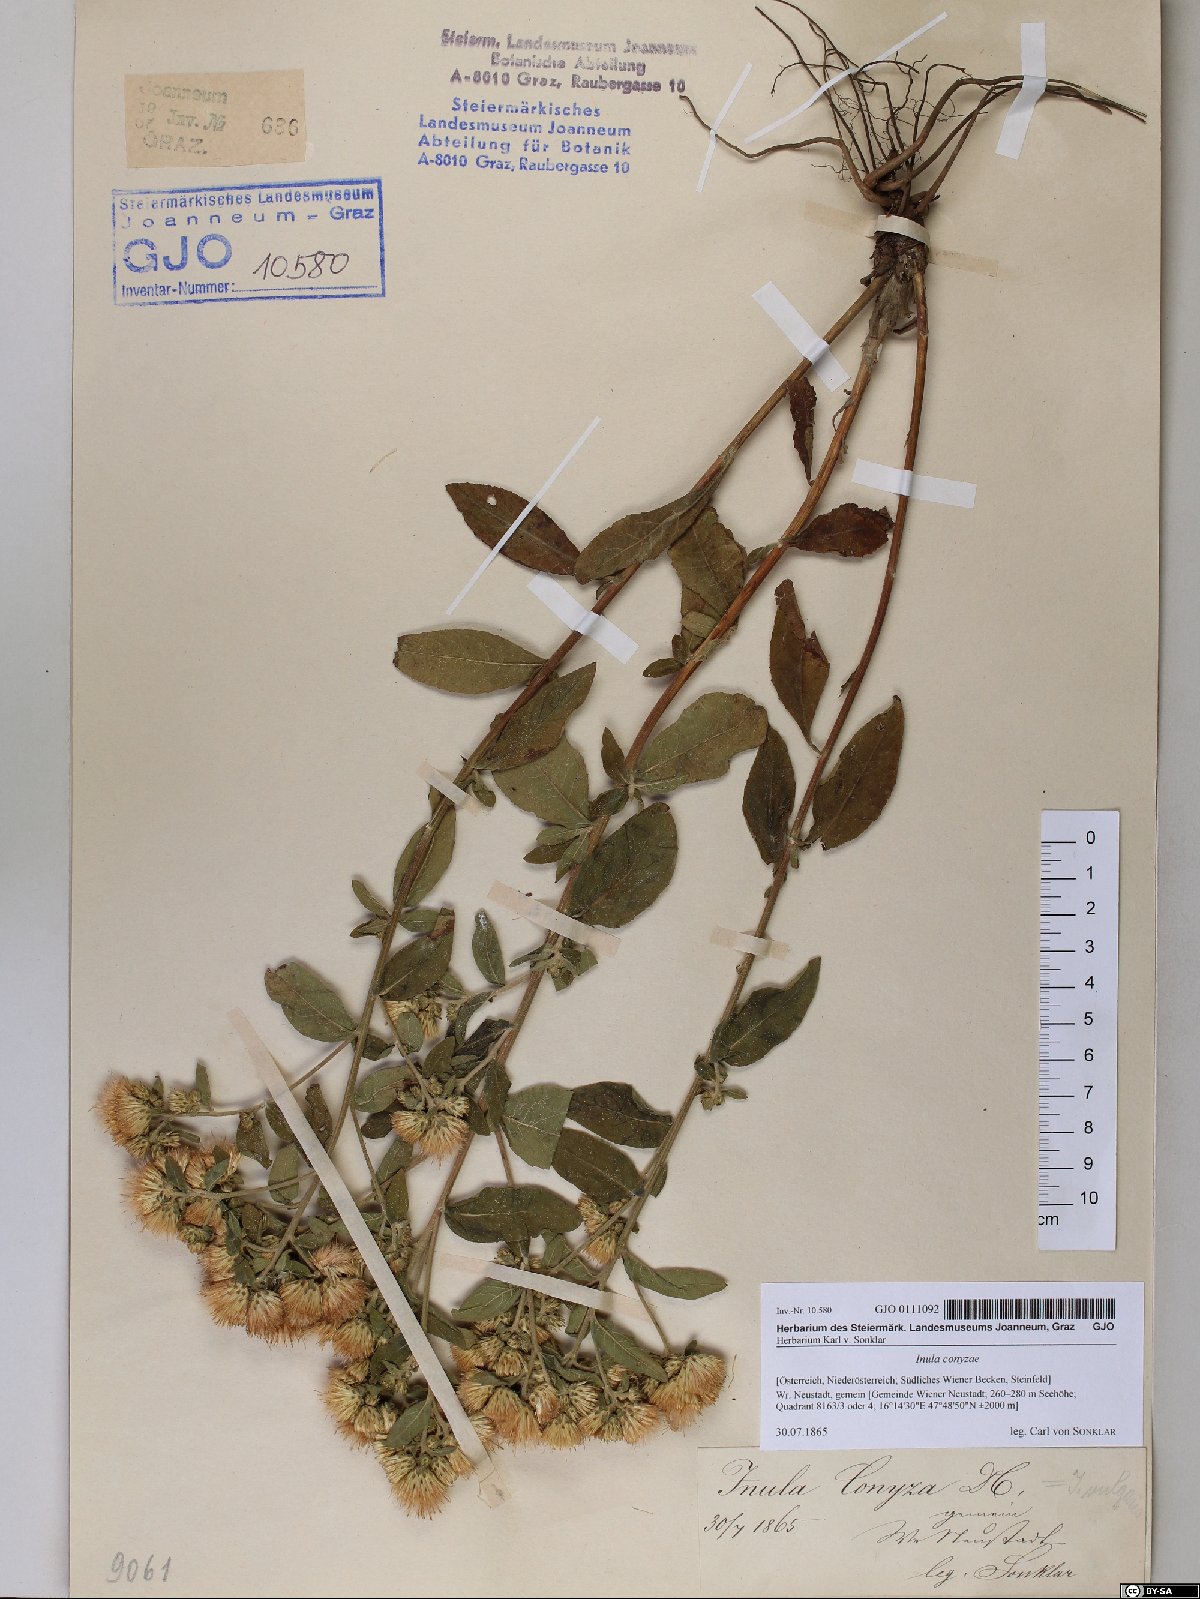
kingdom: Plantae
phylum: Tracheophyta
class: Magnoliopsida
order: Asterales
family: Asteraceae
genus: Pentanema
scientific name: Pentanema squarrosum
